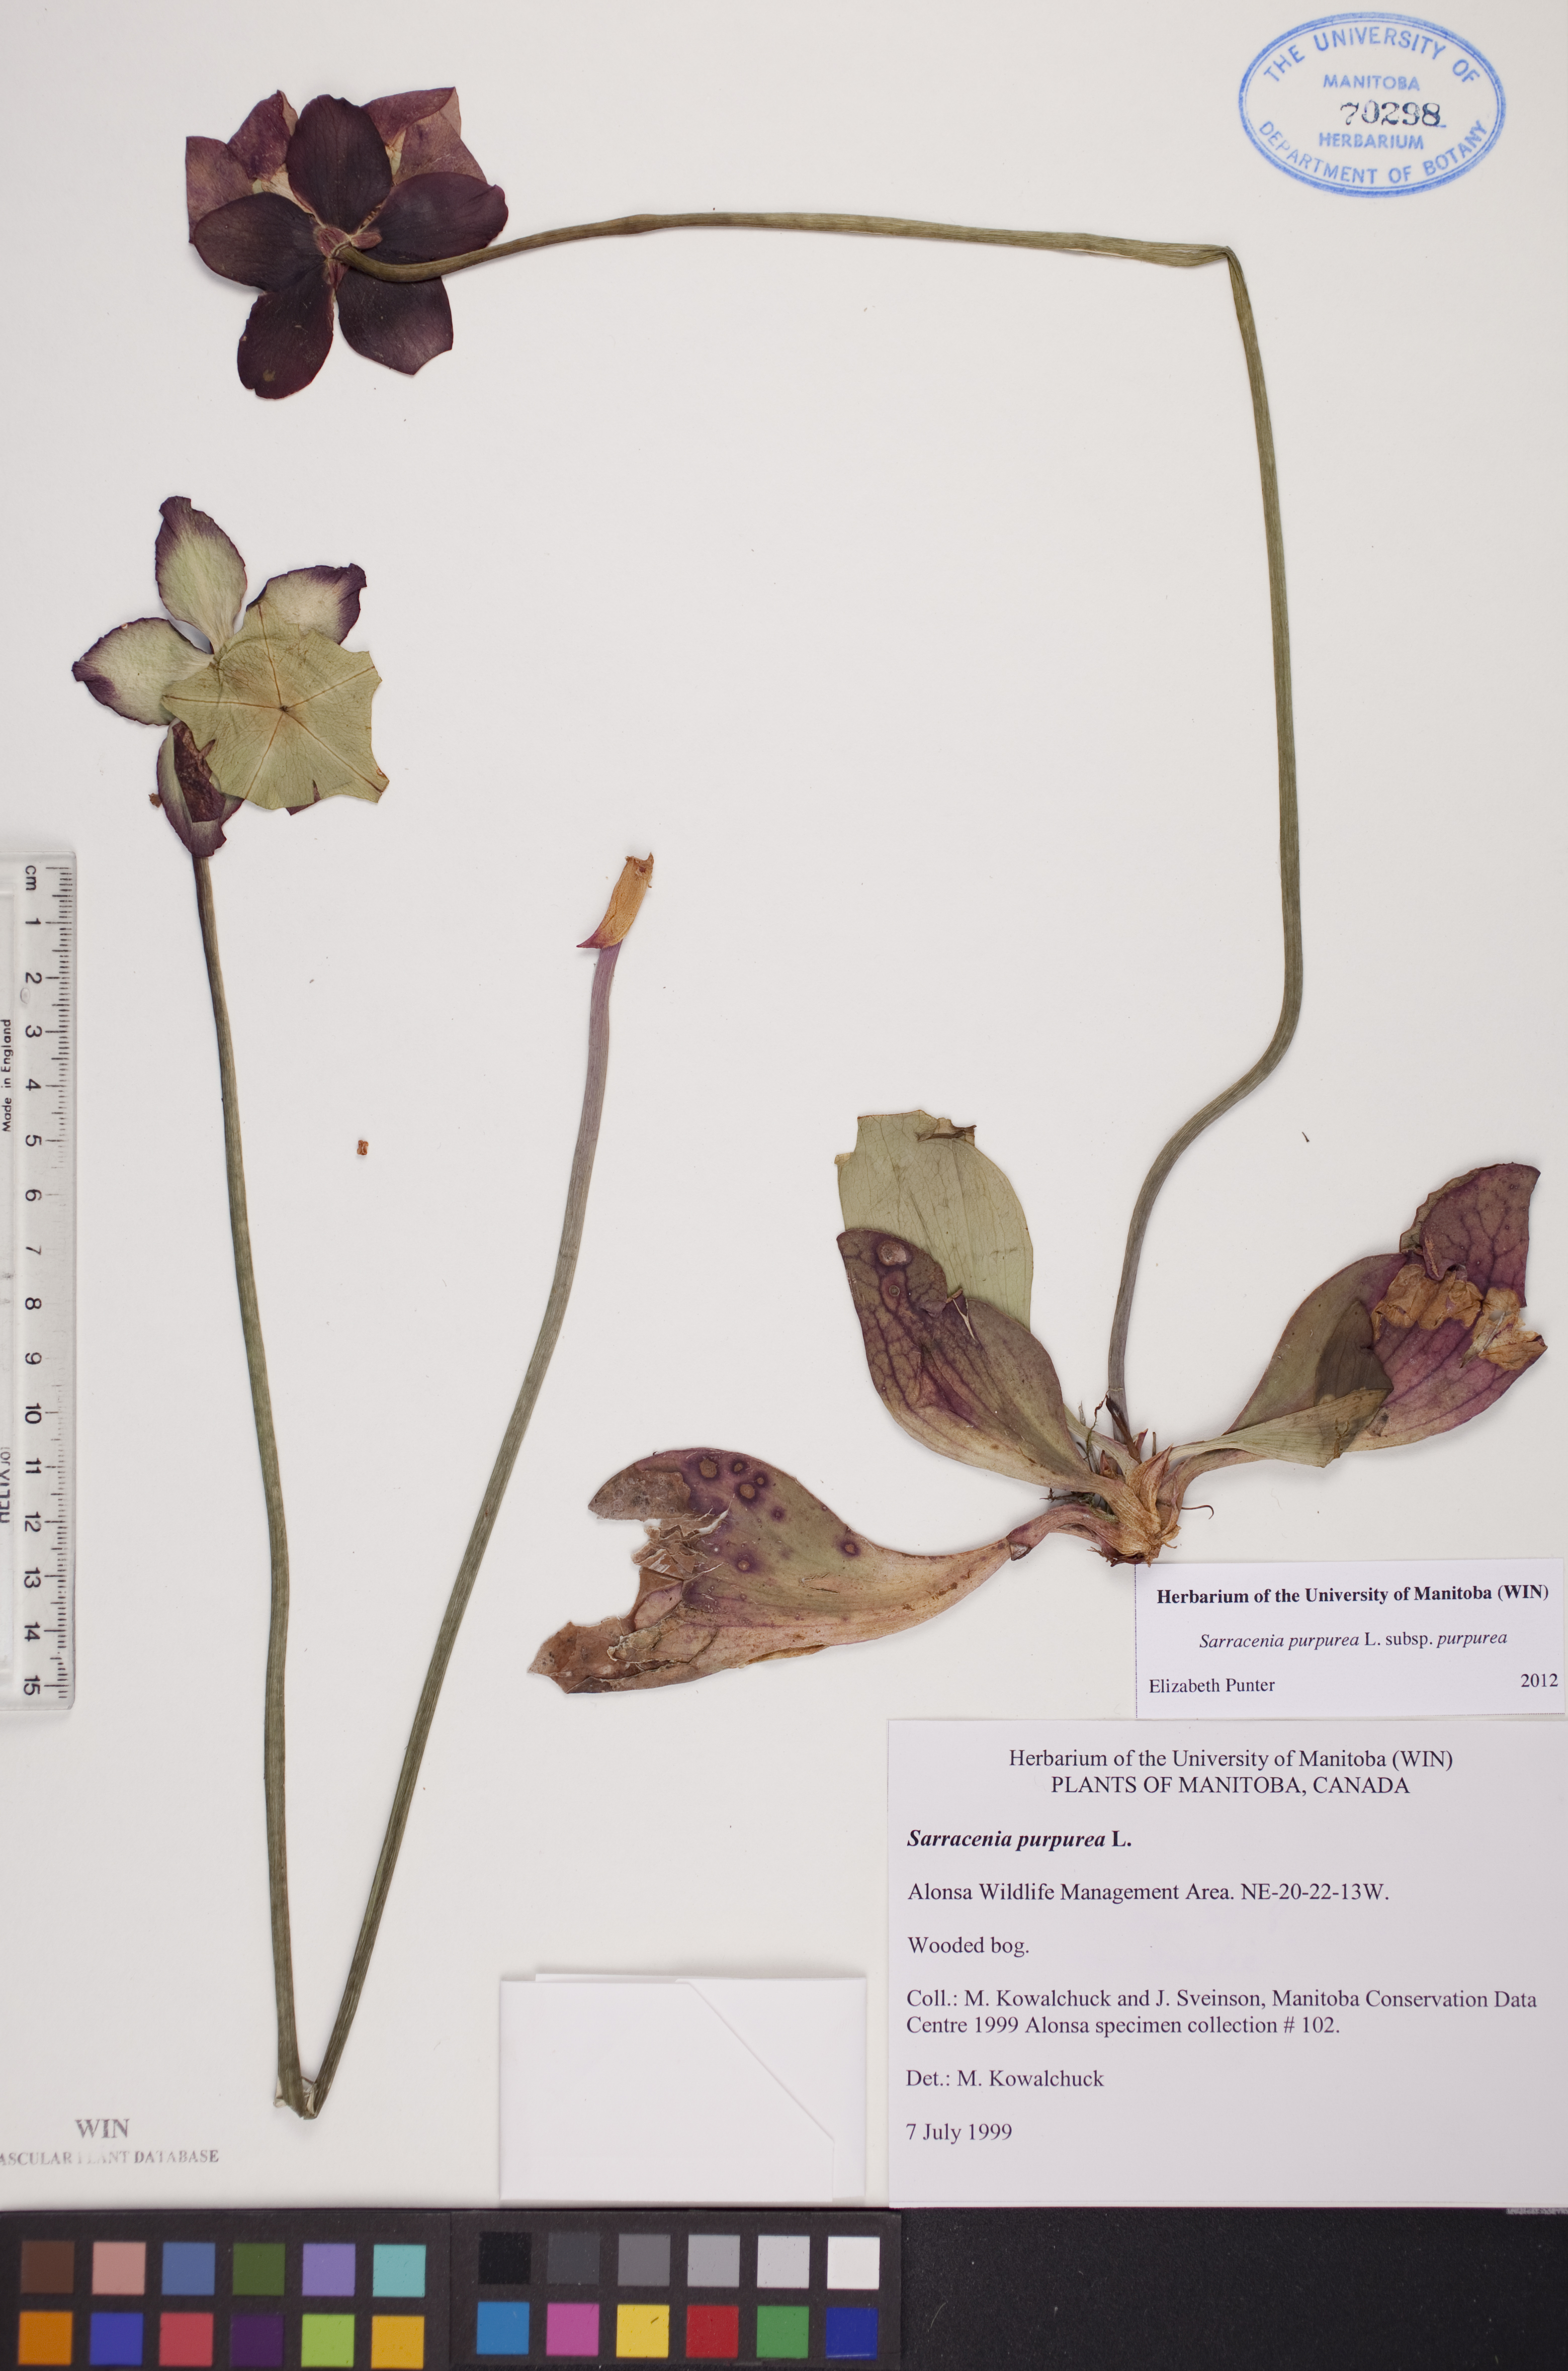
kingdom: Plantae
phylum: Tracheophyta
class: Magnoliopsida
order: Ericales
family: Sarraceniaceae
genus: Sarracenia
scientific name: Sarracenia purpurea
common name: Pitcherplant
